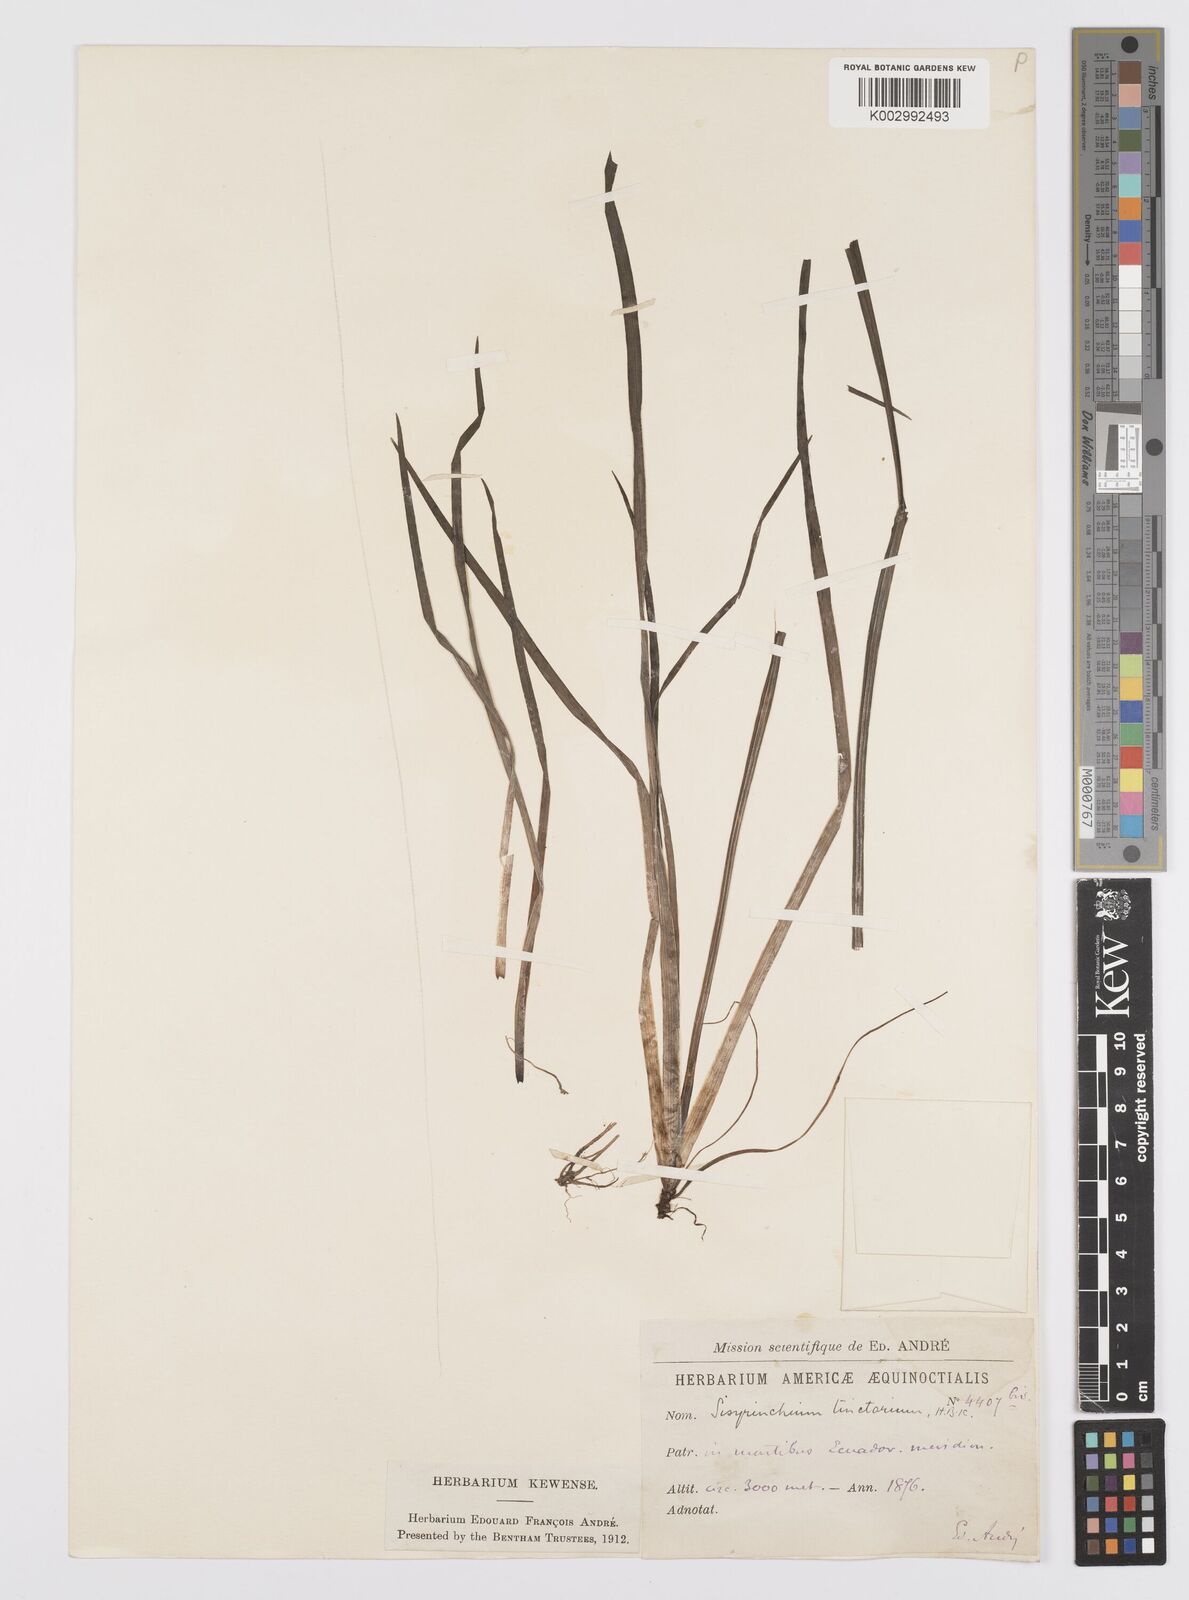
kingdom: Plantae
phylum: Tracheophyta
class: Liliopsida
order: Asparagales
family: Iridaceae
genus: Sisyrinchium
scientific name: Sisyrinchium tinctorium
